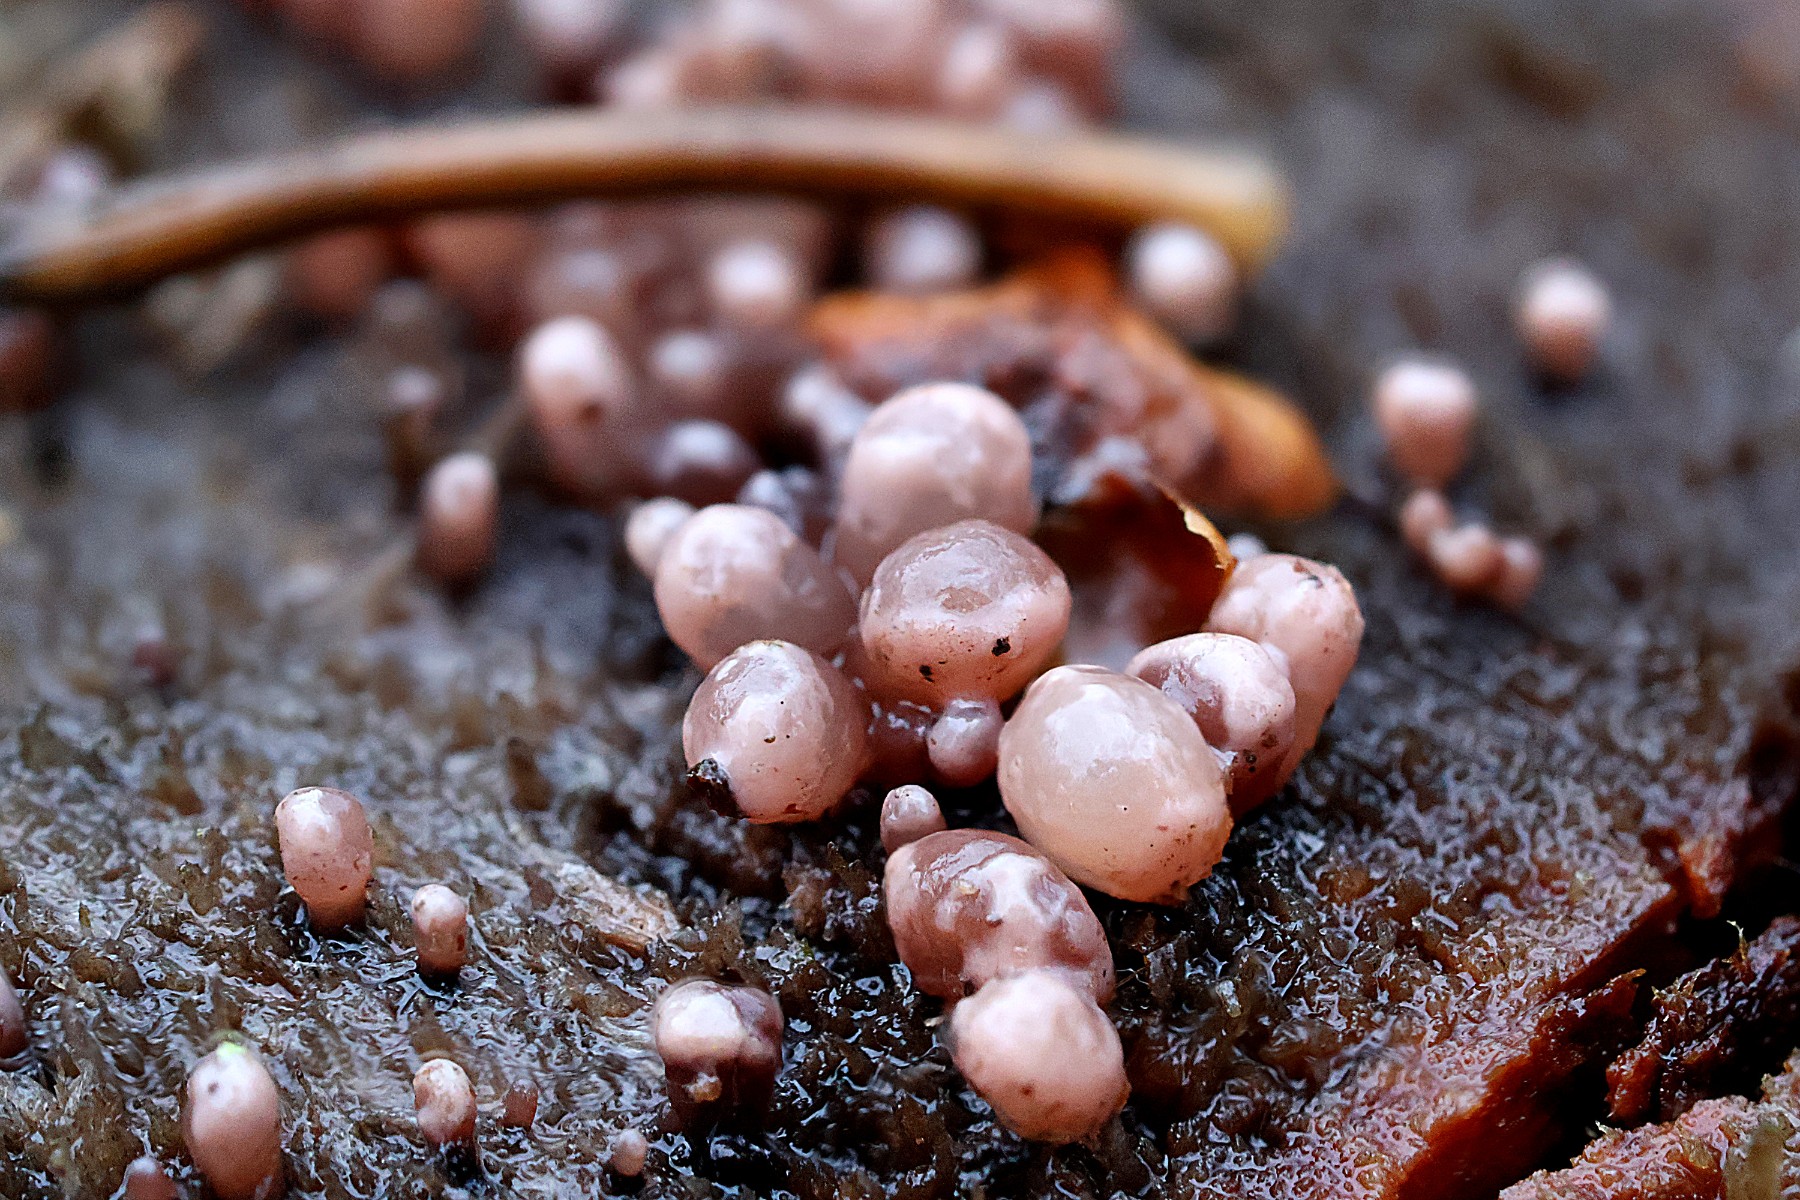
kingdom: Fungi
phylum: Ascomycota
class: Leotiomycetes
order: Helotiales
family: Gelatinodiscaceae
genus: Ascocoryne
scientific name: Ascocoryne sarcoides
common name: rødlilla sejskive
